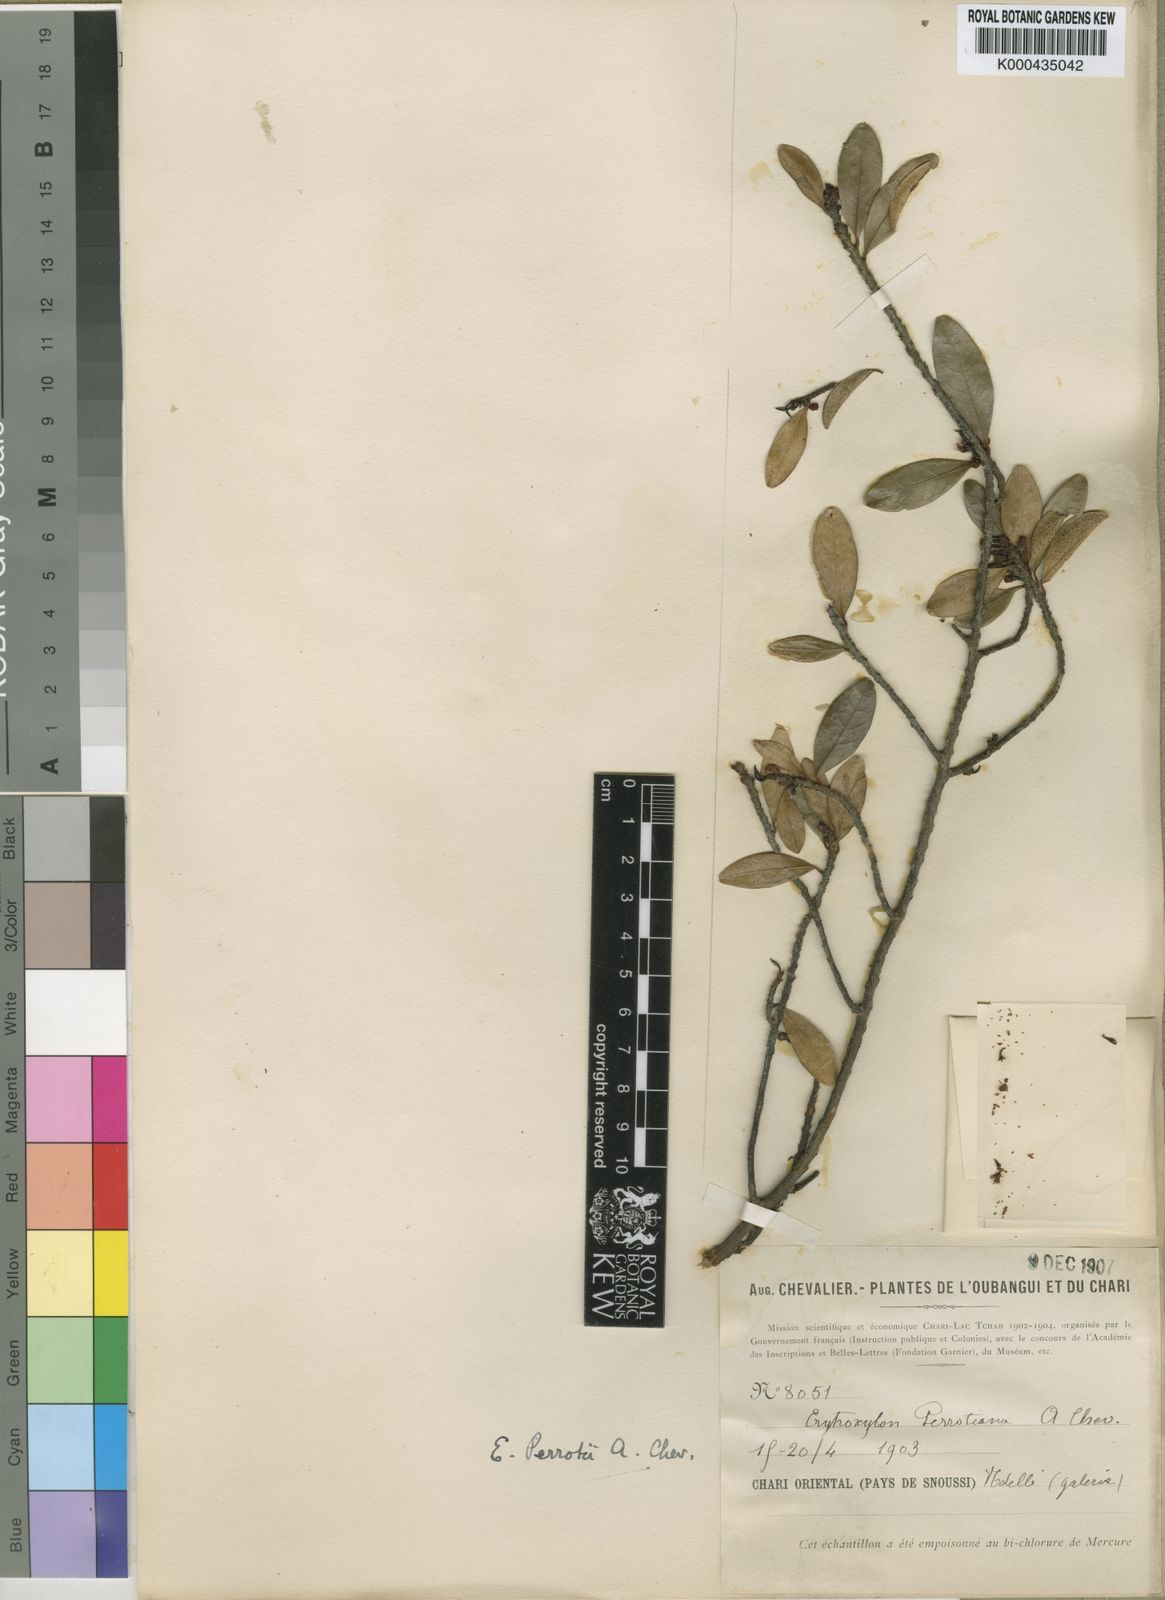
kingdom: Plantae
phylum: Tracheophyta
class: Magnoliopsida
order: Malpighiales
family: Erythroxylaceae
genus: Erythroxylum
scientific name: Erythroxylum emarginatum
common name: African coca-tree
